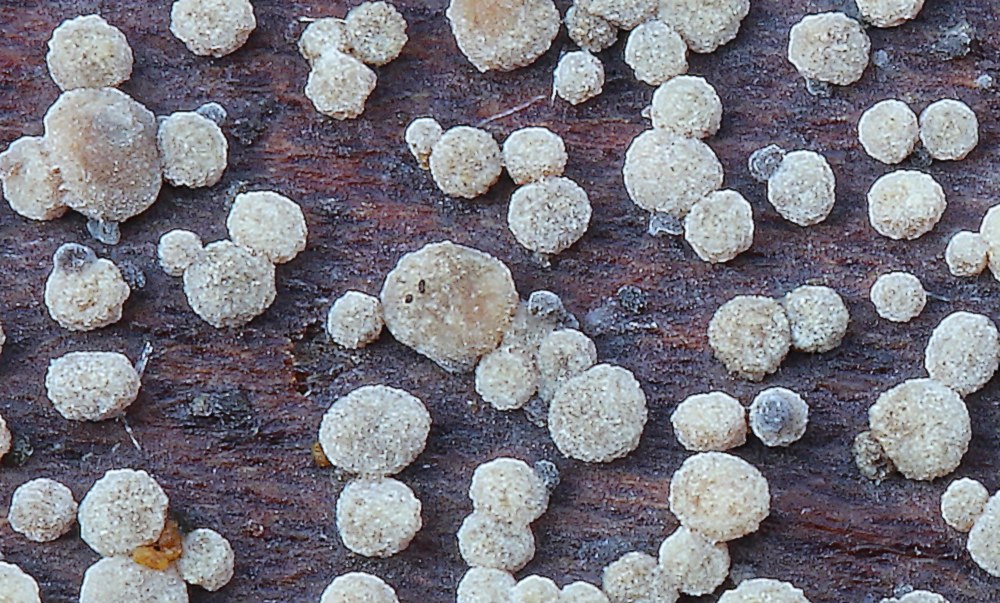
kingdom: Fungi
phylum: Ascomycota
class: Leotiomycetes
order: Helotiales
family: Dermateaceae
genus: Pezicula
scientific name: Pezicula cinnamomea
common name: kanel-klyngeskive
